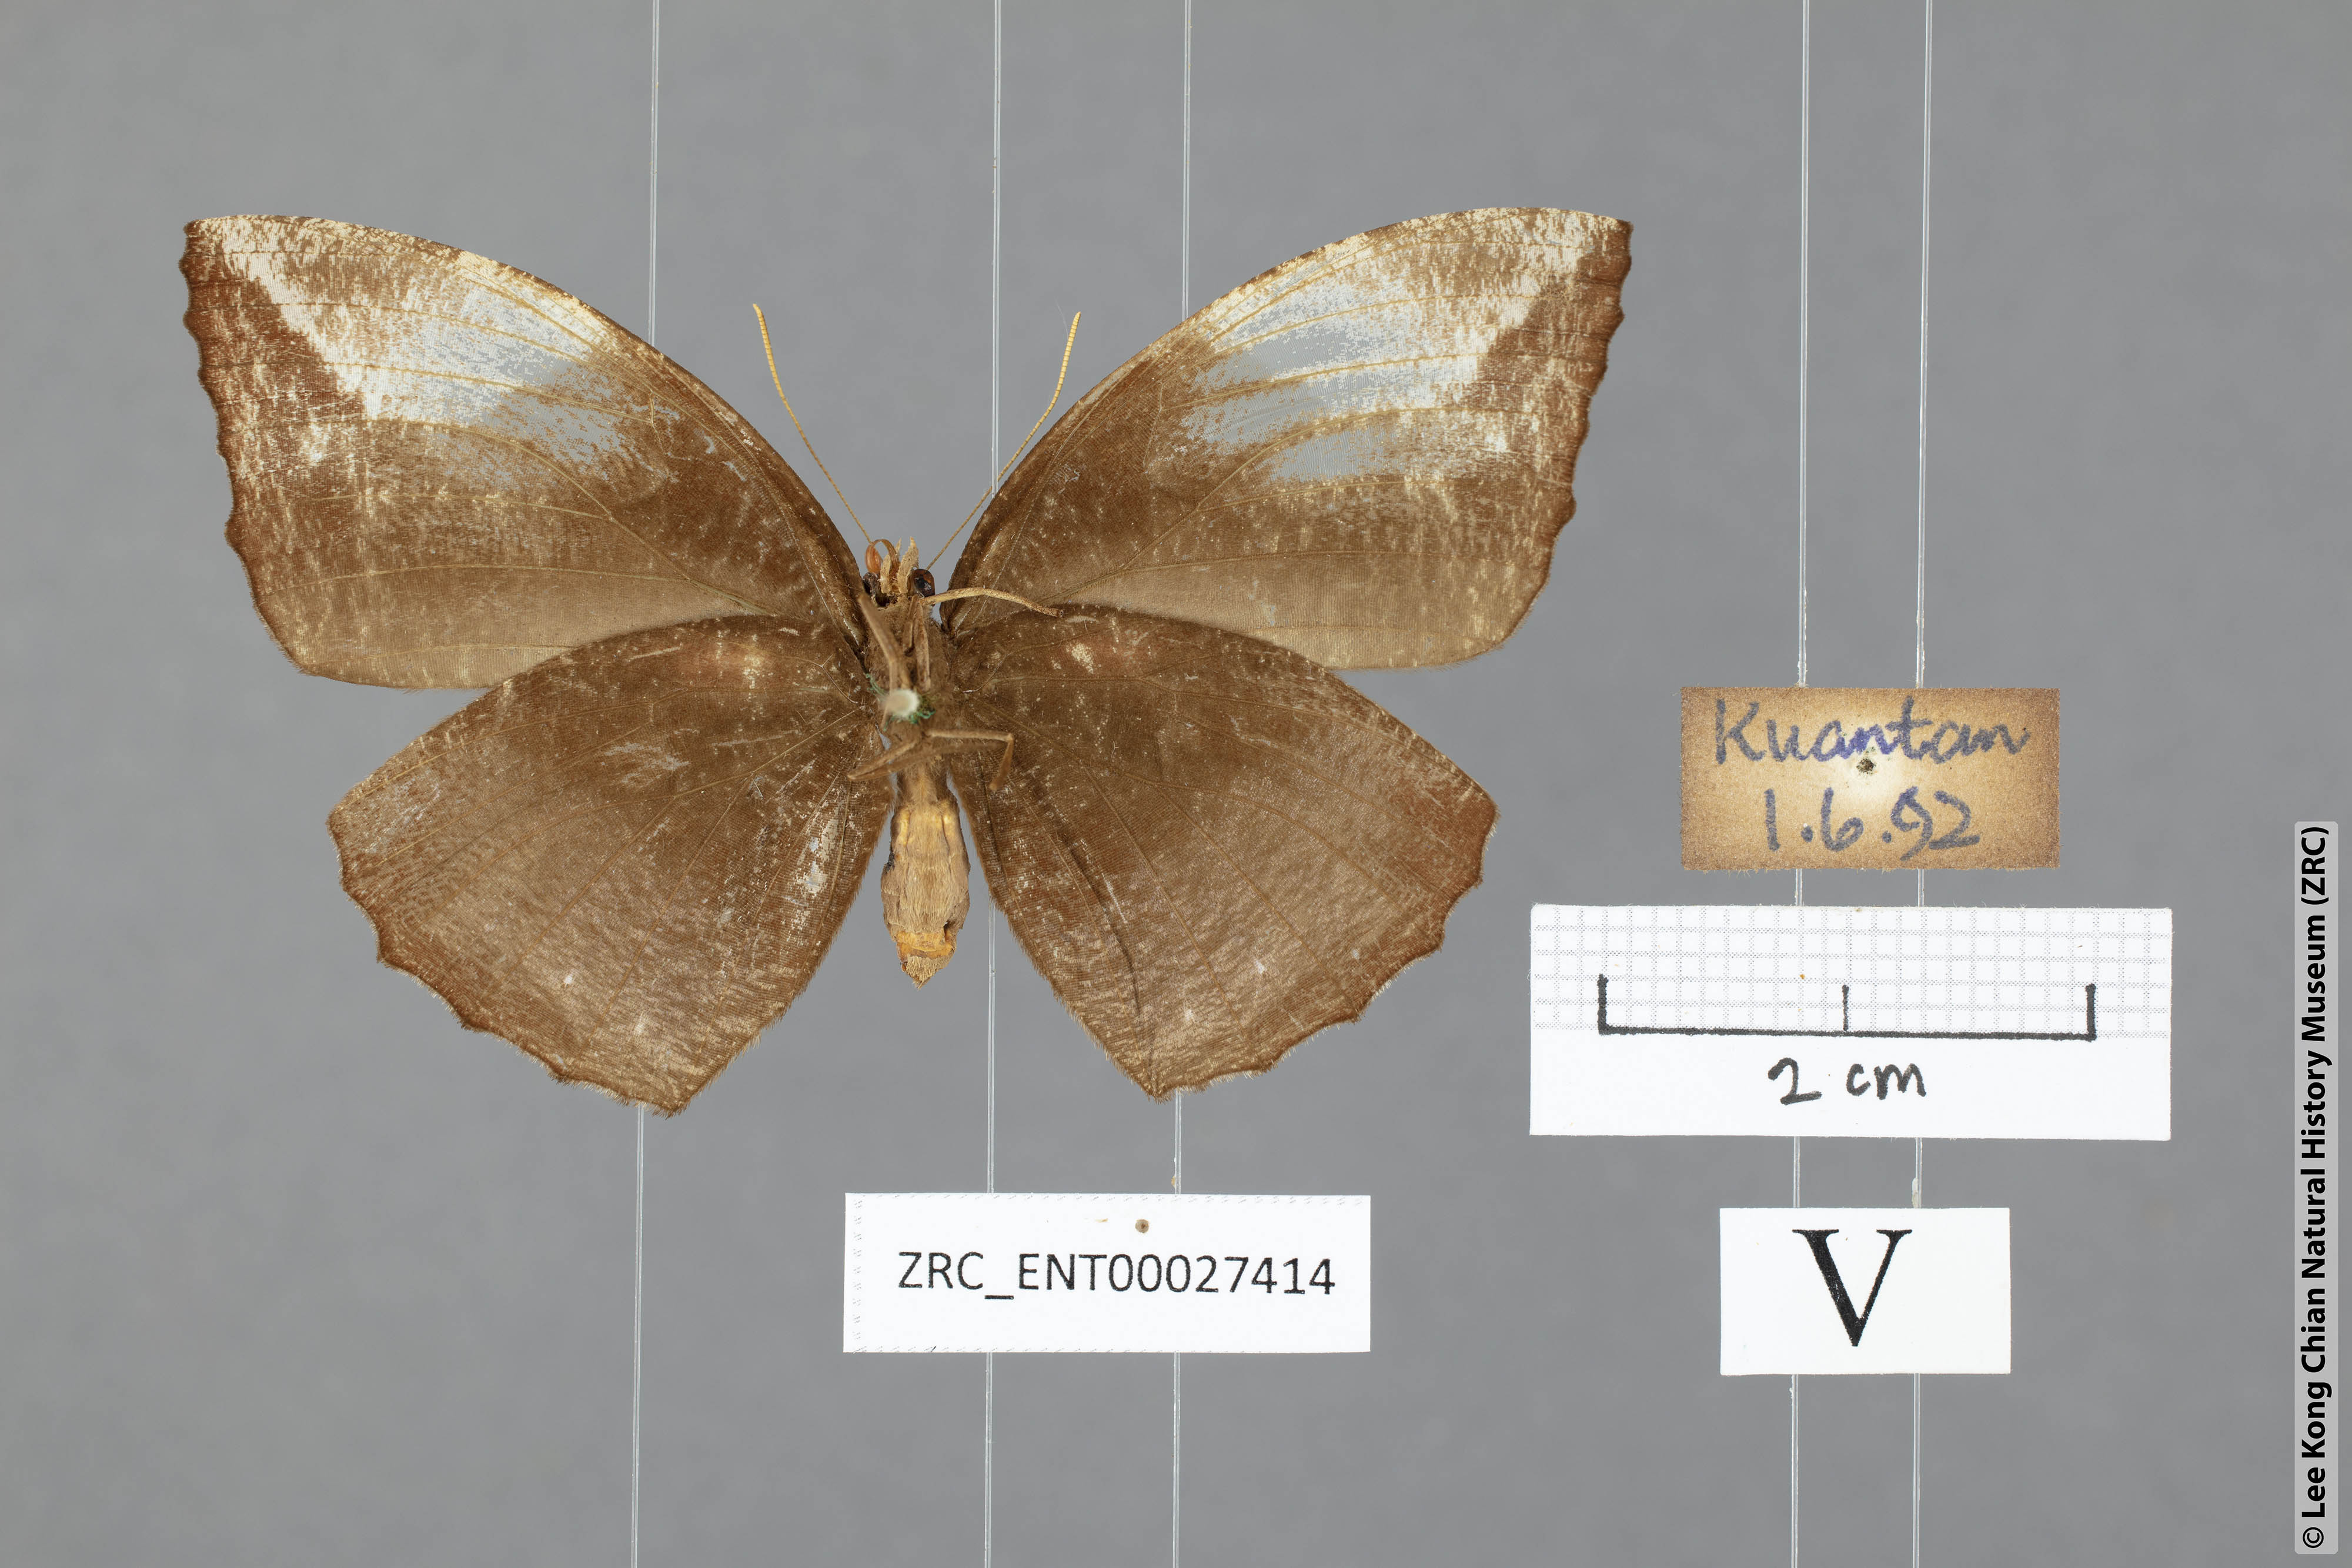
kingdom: Animalia
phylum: Arthropoda
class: Insecta
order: Lepidoptera
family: Nymphalidae
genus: Elymnias
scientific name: Elymnias penanga
